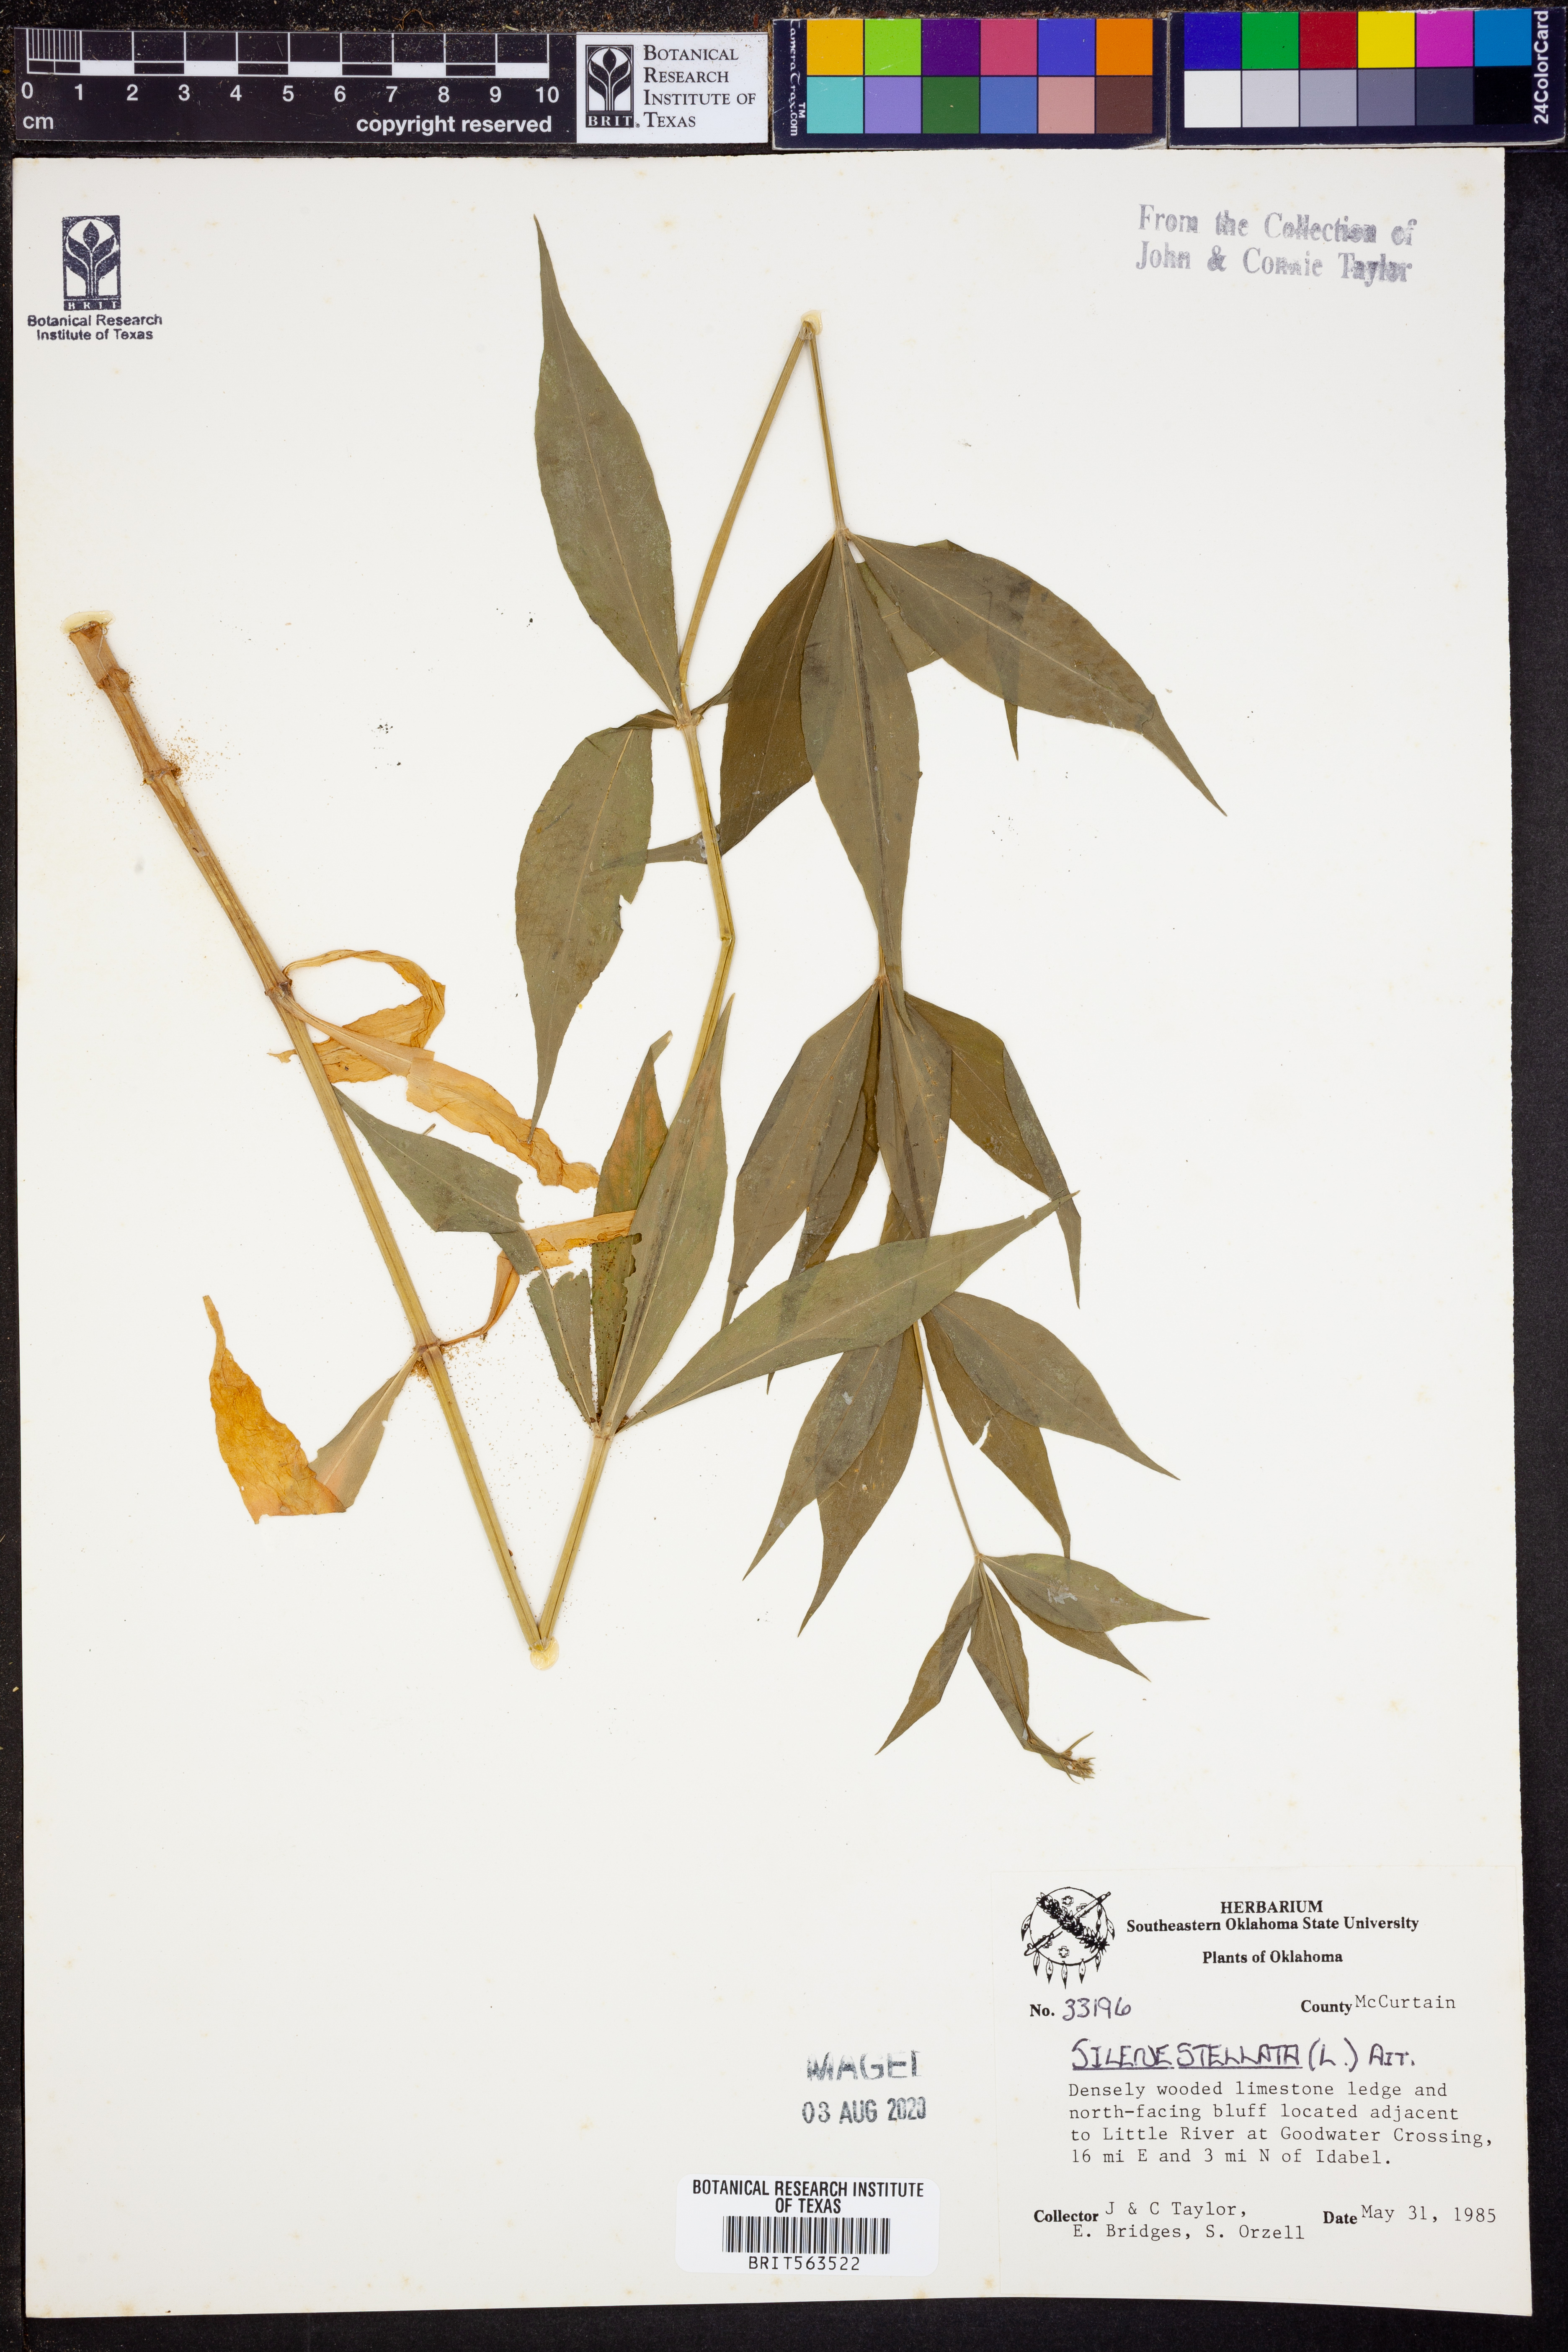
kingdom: Plantae
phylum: Tracheophyta
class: Magnoliopsida
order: Caryophyllales
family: Caryophyllaceae
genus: Silene
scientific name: Silene stellata
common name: Starry campion
